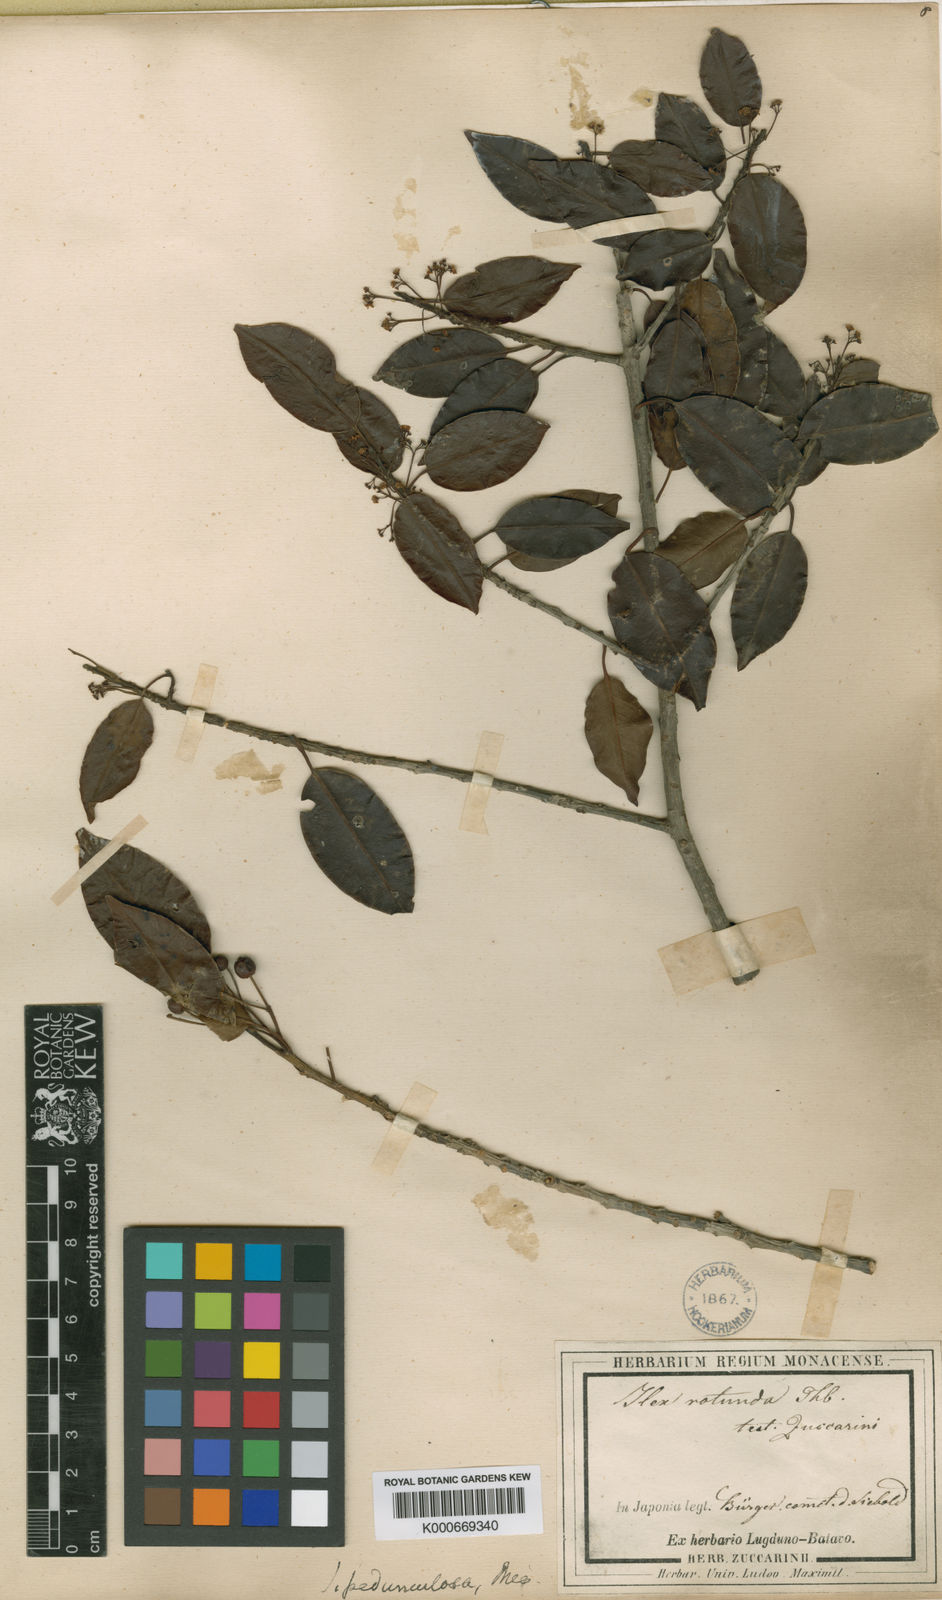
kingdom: Plantae
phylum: Tracheophyta
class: Magnoliopsida
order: Aquifoliales
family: Aquifoliaceae
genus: Ilex
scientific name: Ilex pedunculosa
